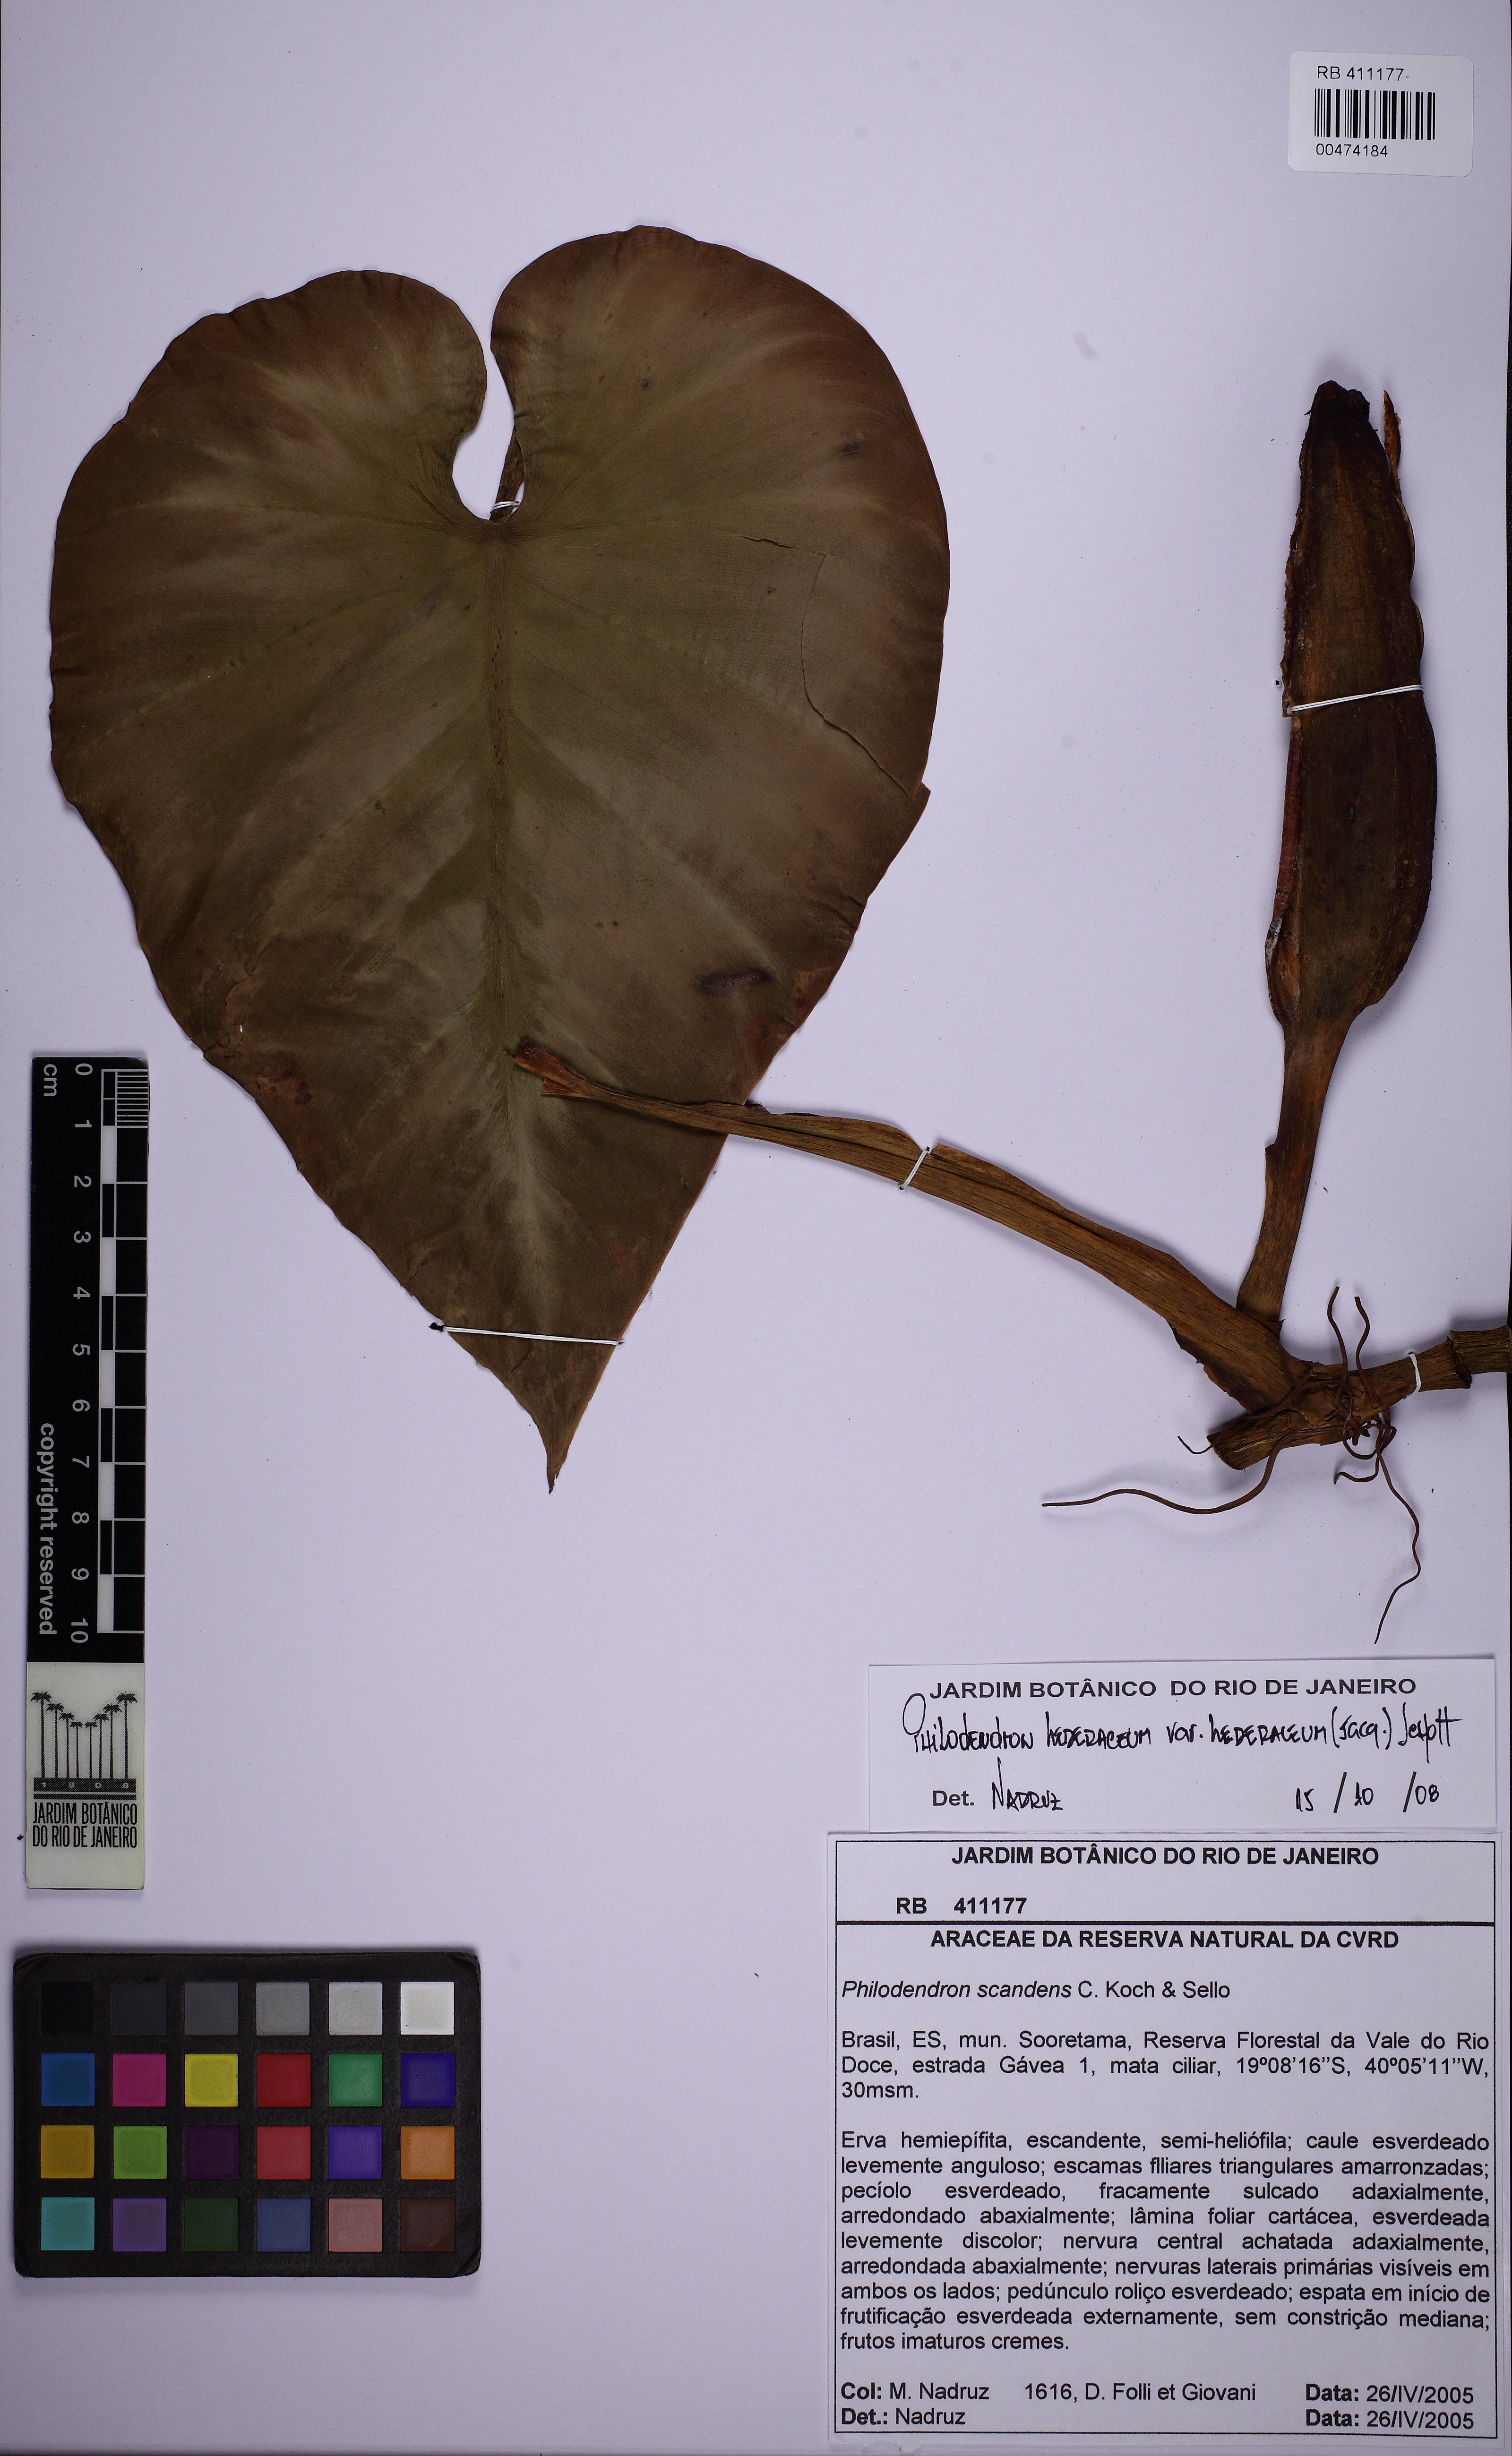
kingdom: Plantae
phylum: Tracheophyta
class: Liliopsida
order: Alismatales
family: Araceae
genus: Philodendron
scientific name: Philodendron hederaceum
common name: Vilevine
